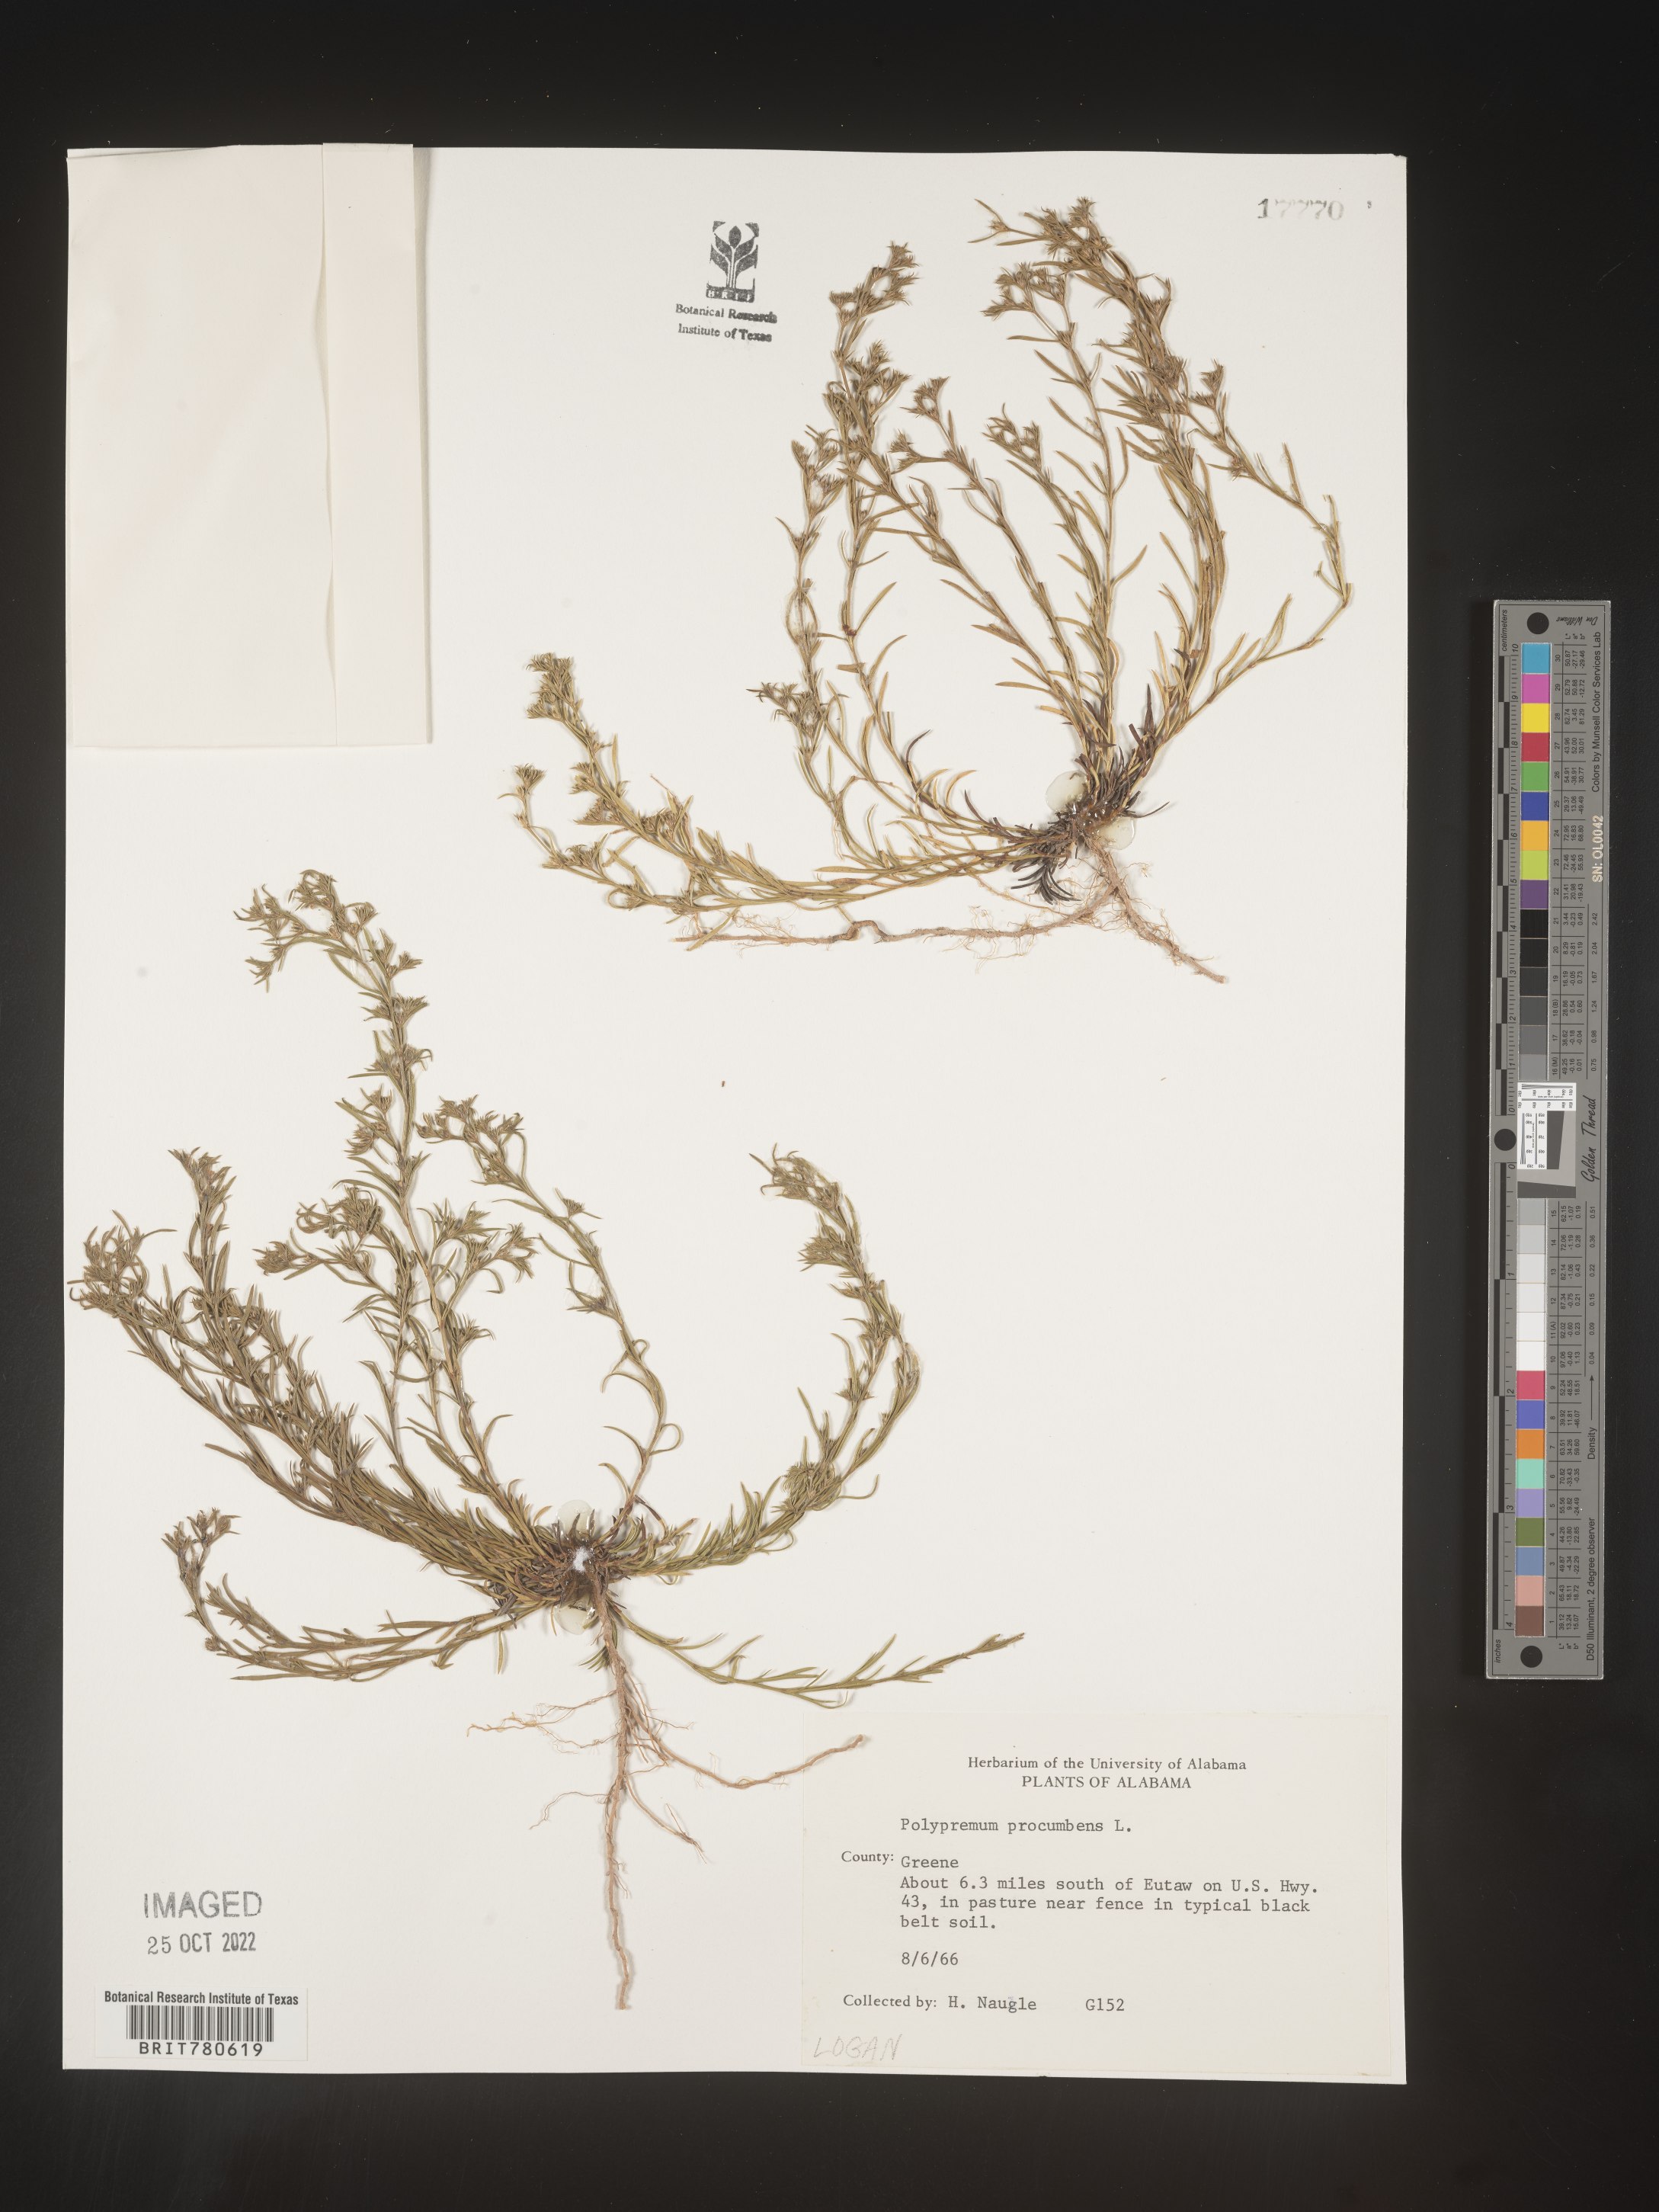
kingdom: Plantae
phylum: Tracheophyta
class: Magnoliopsida
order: Lamiales
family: Tetrachondraceae
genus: Polypremum
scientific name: Polypremum procumbens
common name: Juniper-leaf
